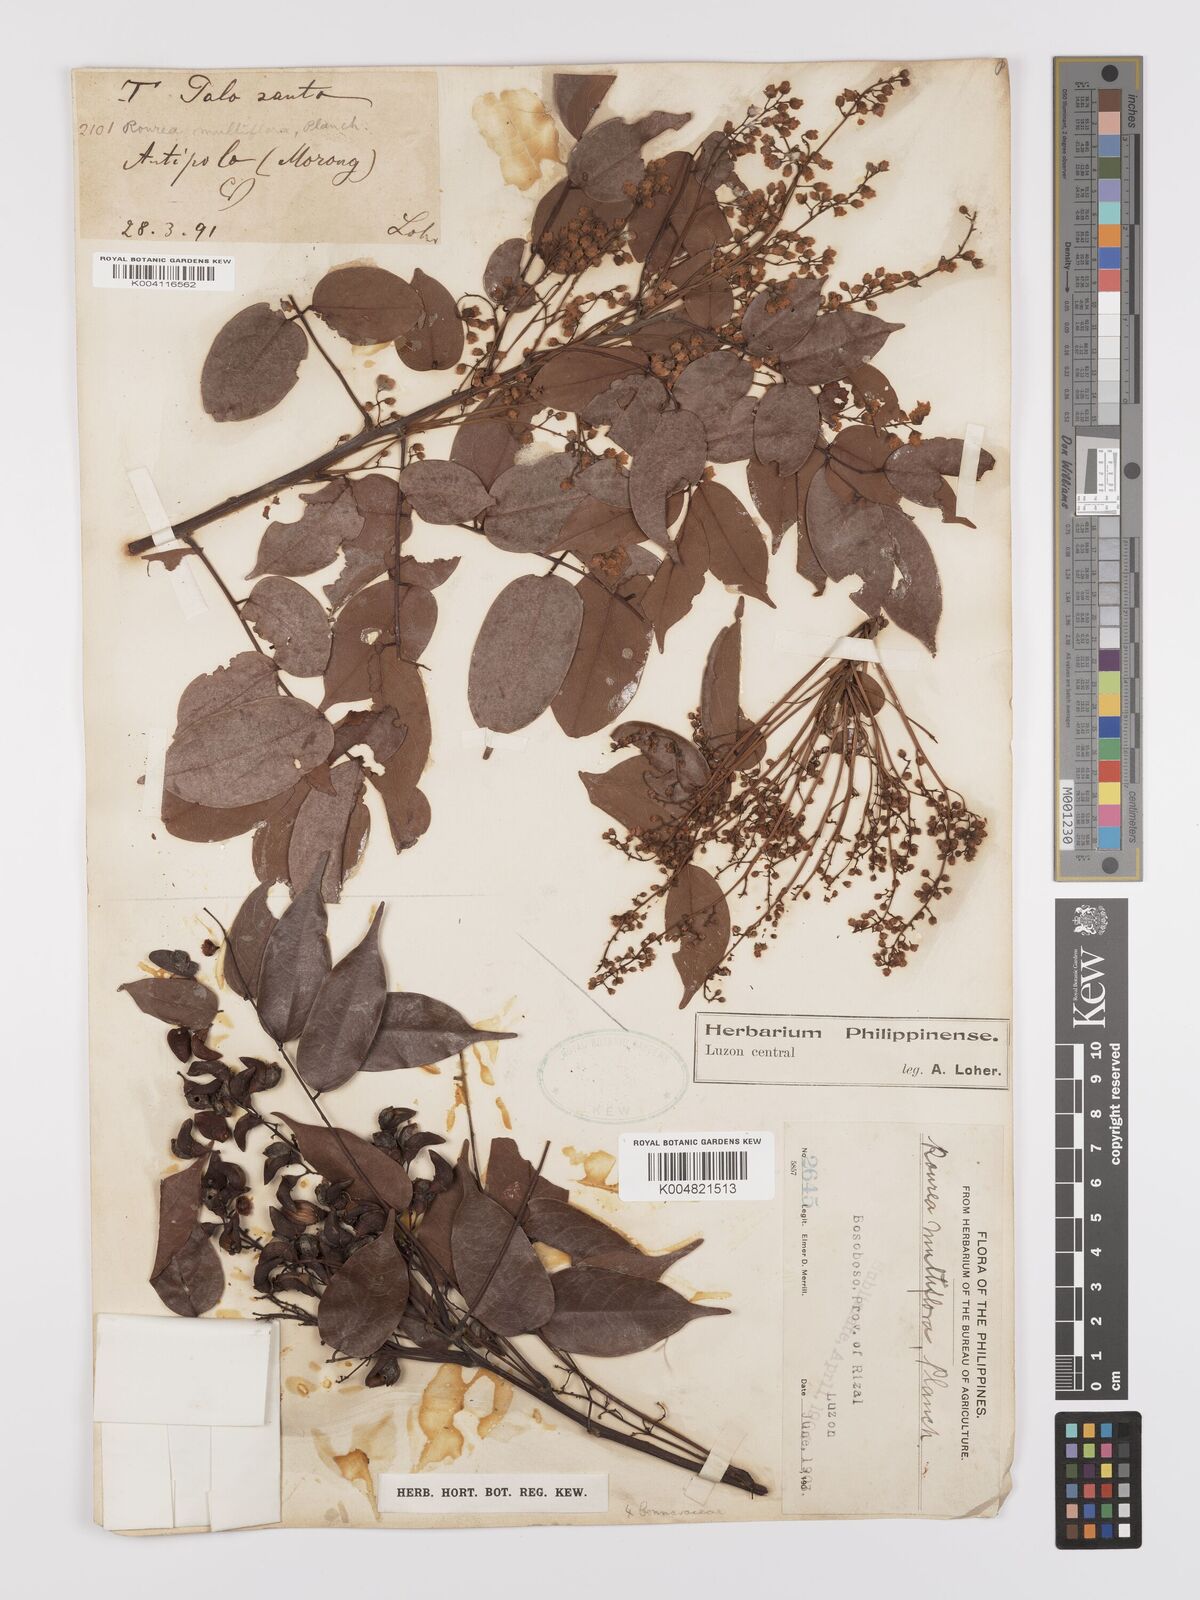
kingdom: Plantae
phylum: Tracheophyta
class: Magnoliopsida
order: Oxalidales
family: Connaraceae
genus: Rourea
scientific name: Rourea minor
